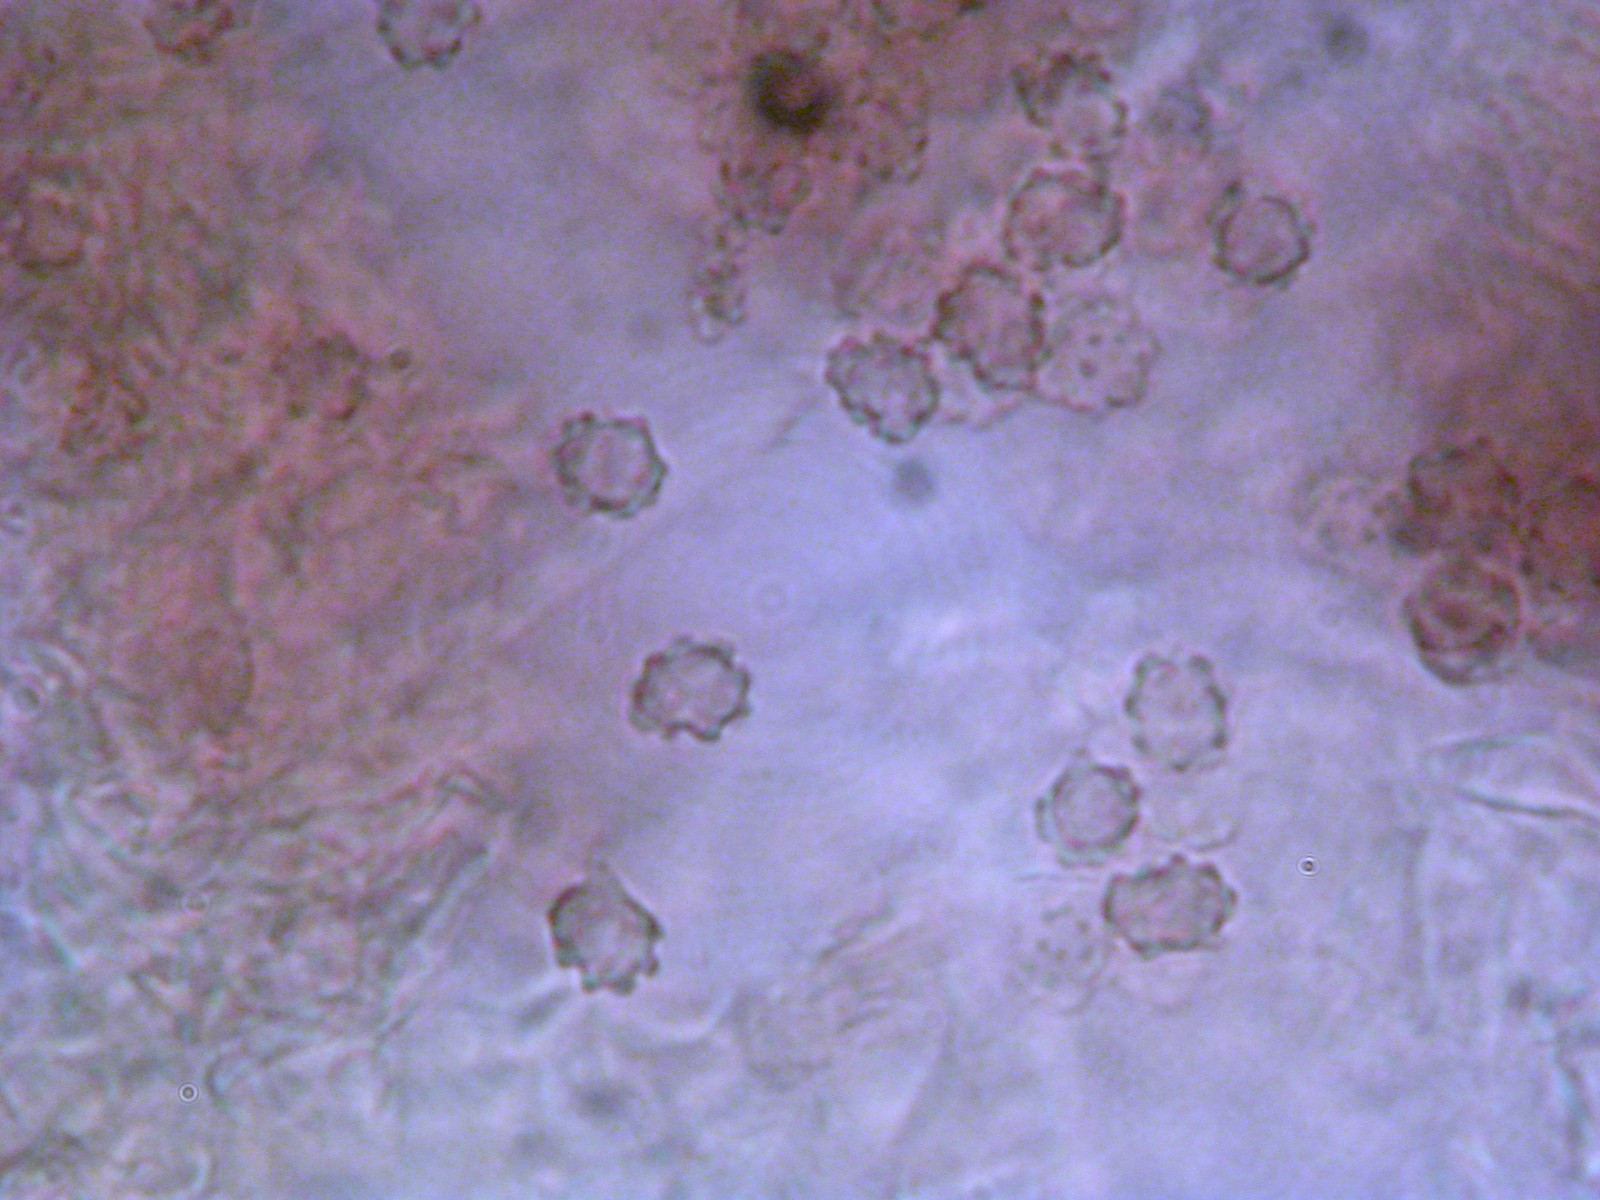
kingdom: Fungi
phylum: Basidiomycota
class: Agaricomycetes
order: Thelephorales
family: Bankeraceae
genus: Hydnellum
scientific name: Hydnellum lepidum
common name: skrænt-korkpigsvamp
